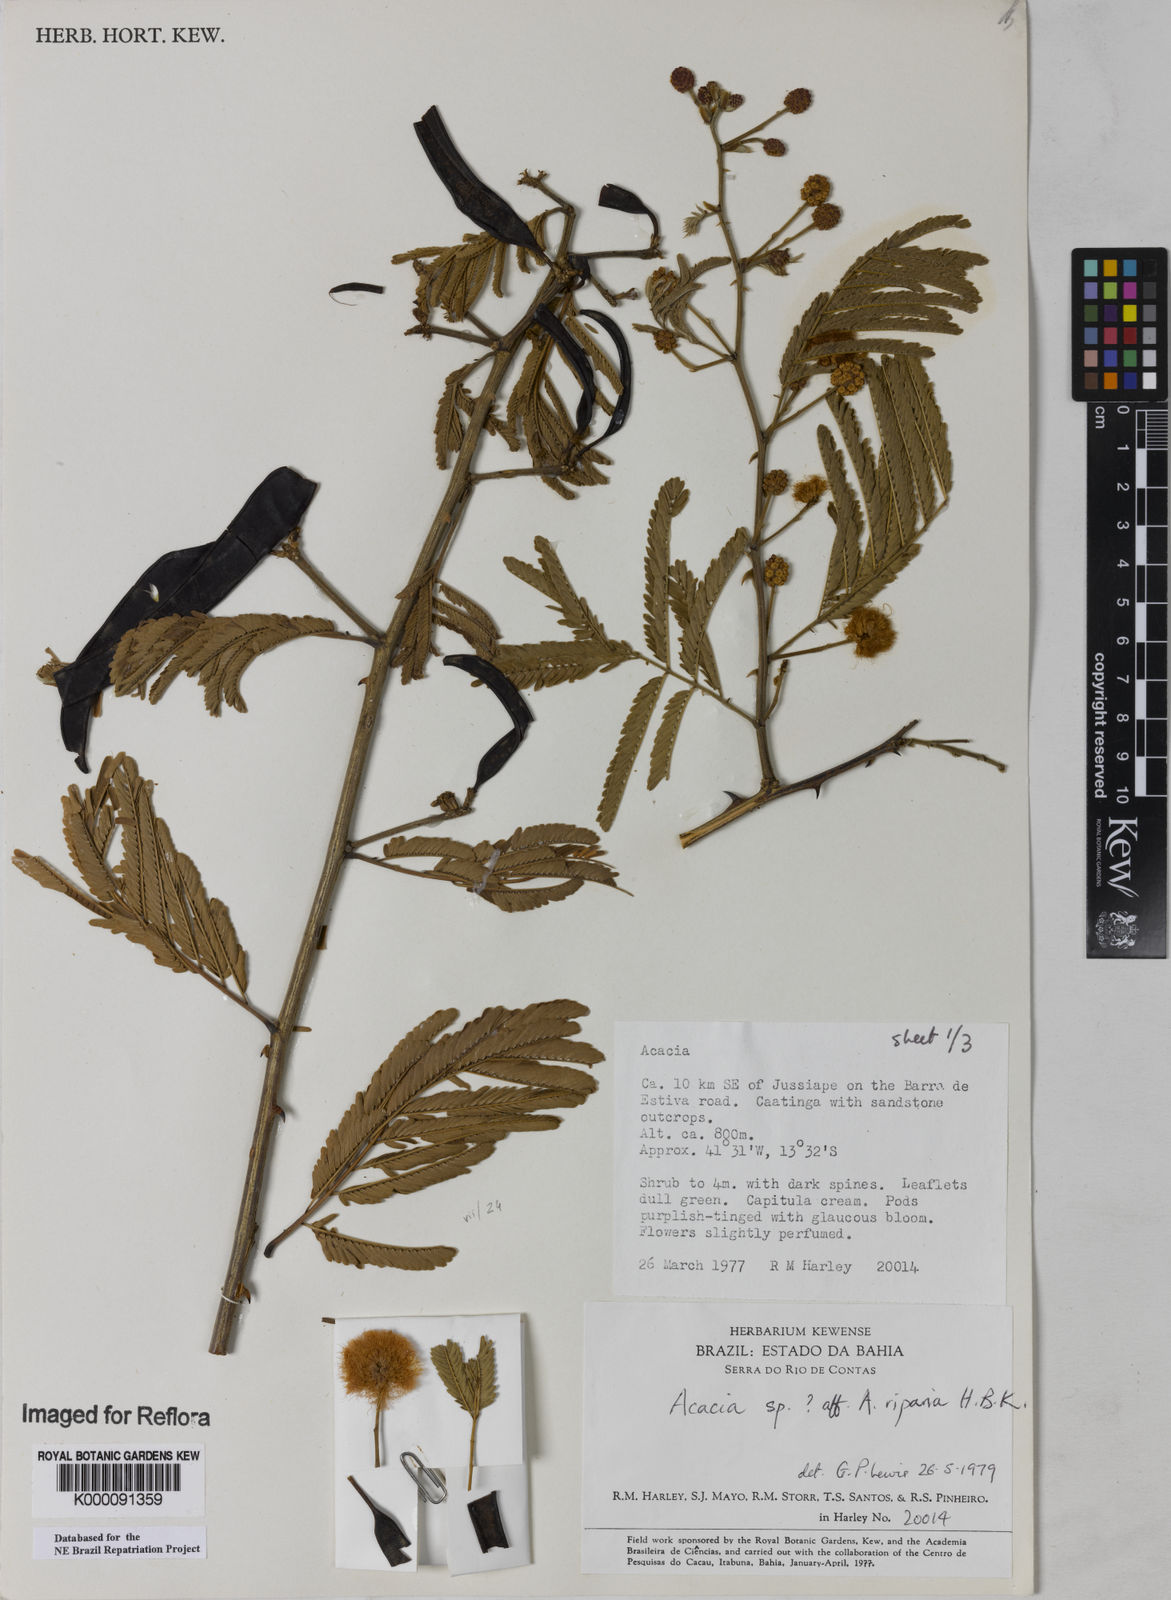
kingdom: Plantae
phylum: Tracheophyta
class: Magnoliopsida
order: Fabales
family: Fabaceae
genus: Senegalia
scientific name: Senegalia riparia
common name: Catch-and-keep
